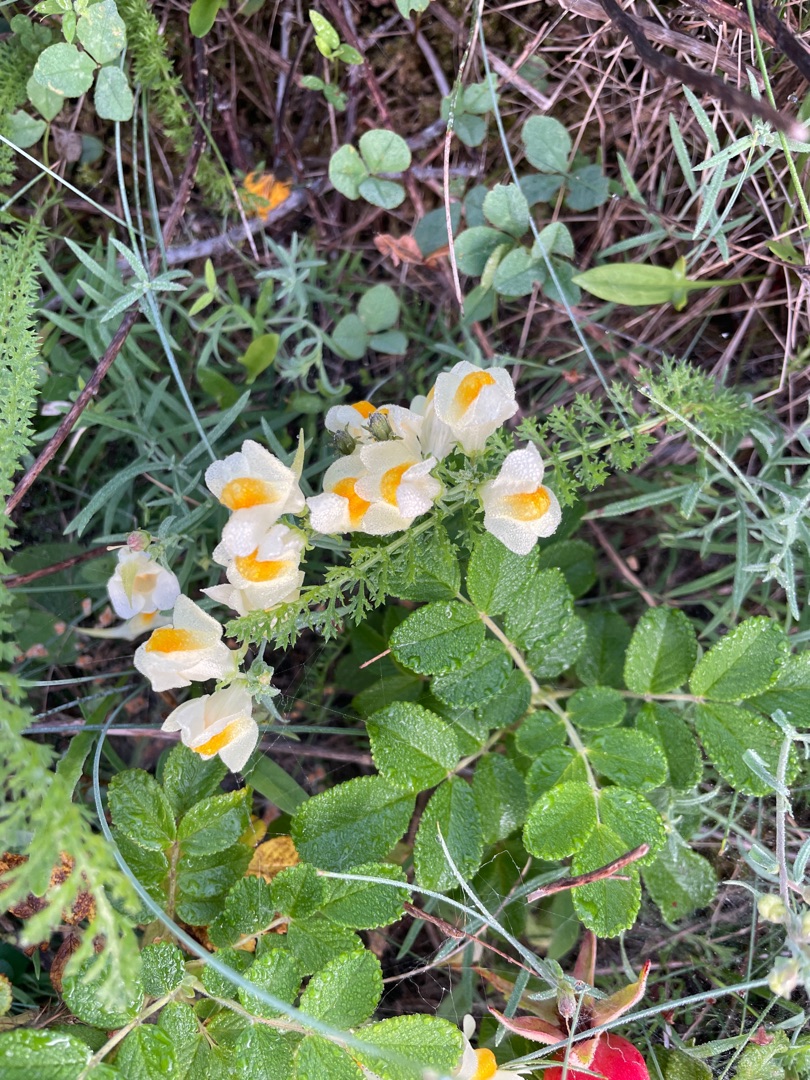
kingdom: Plantae
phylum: Tracheophyta
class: Magnoliopsida
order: Lamiales
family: Plantaginaceae
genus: Linaria
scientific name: Linaria vulgaris
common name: Almindelig torskemund
